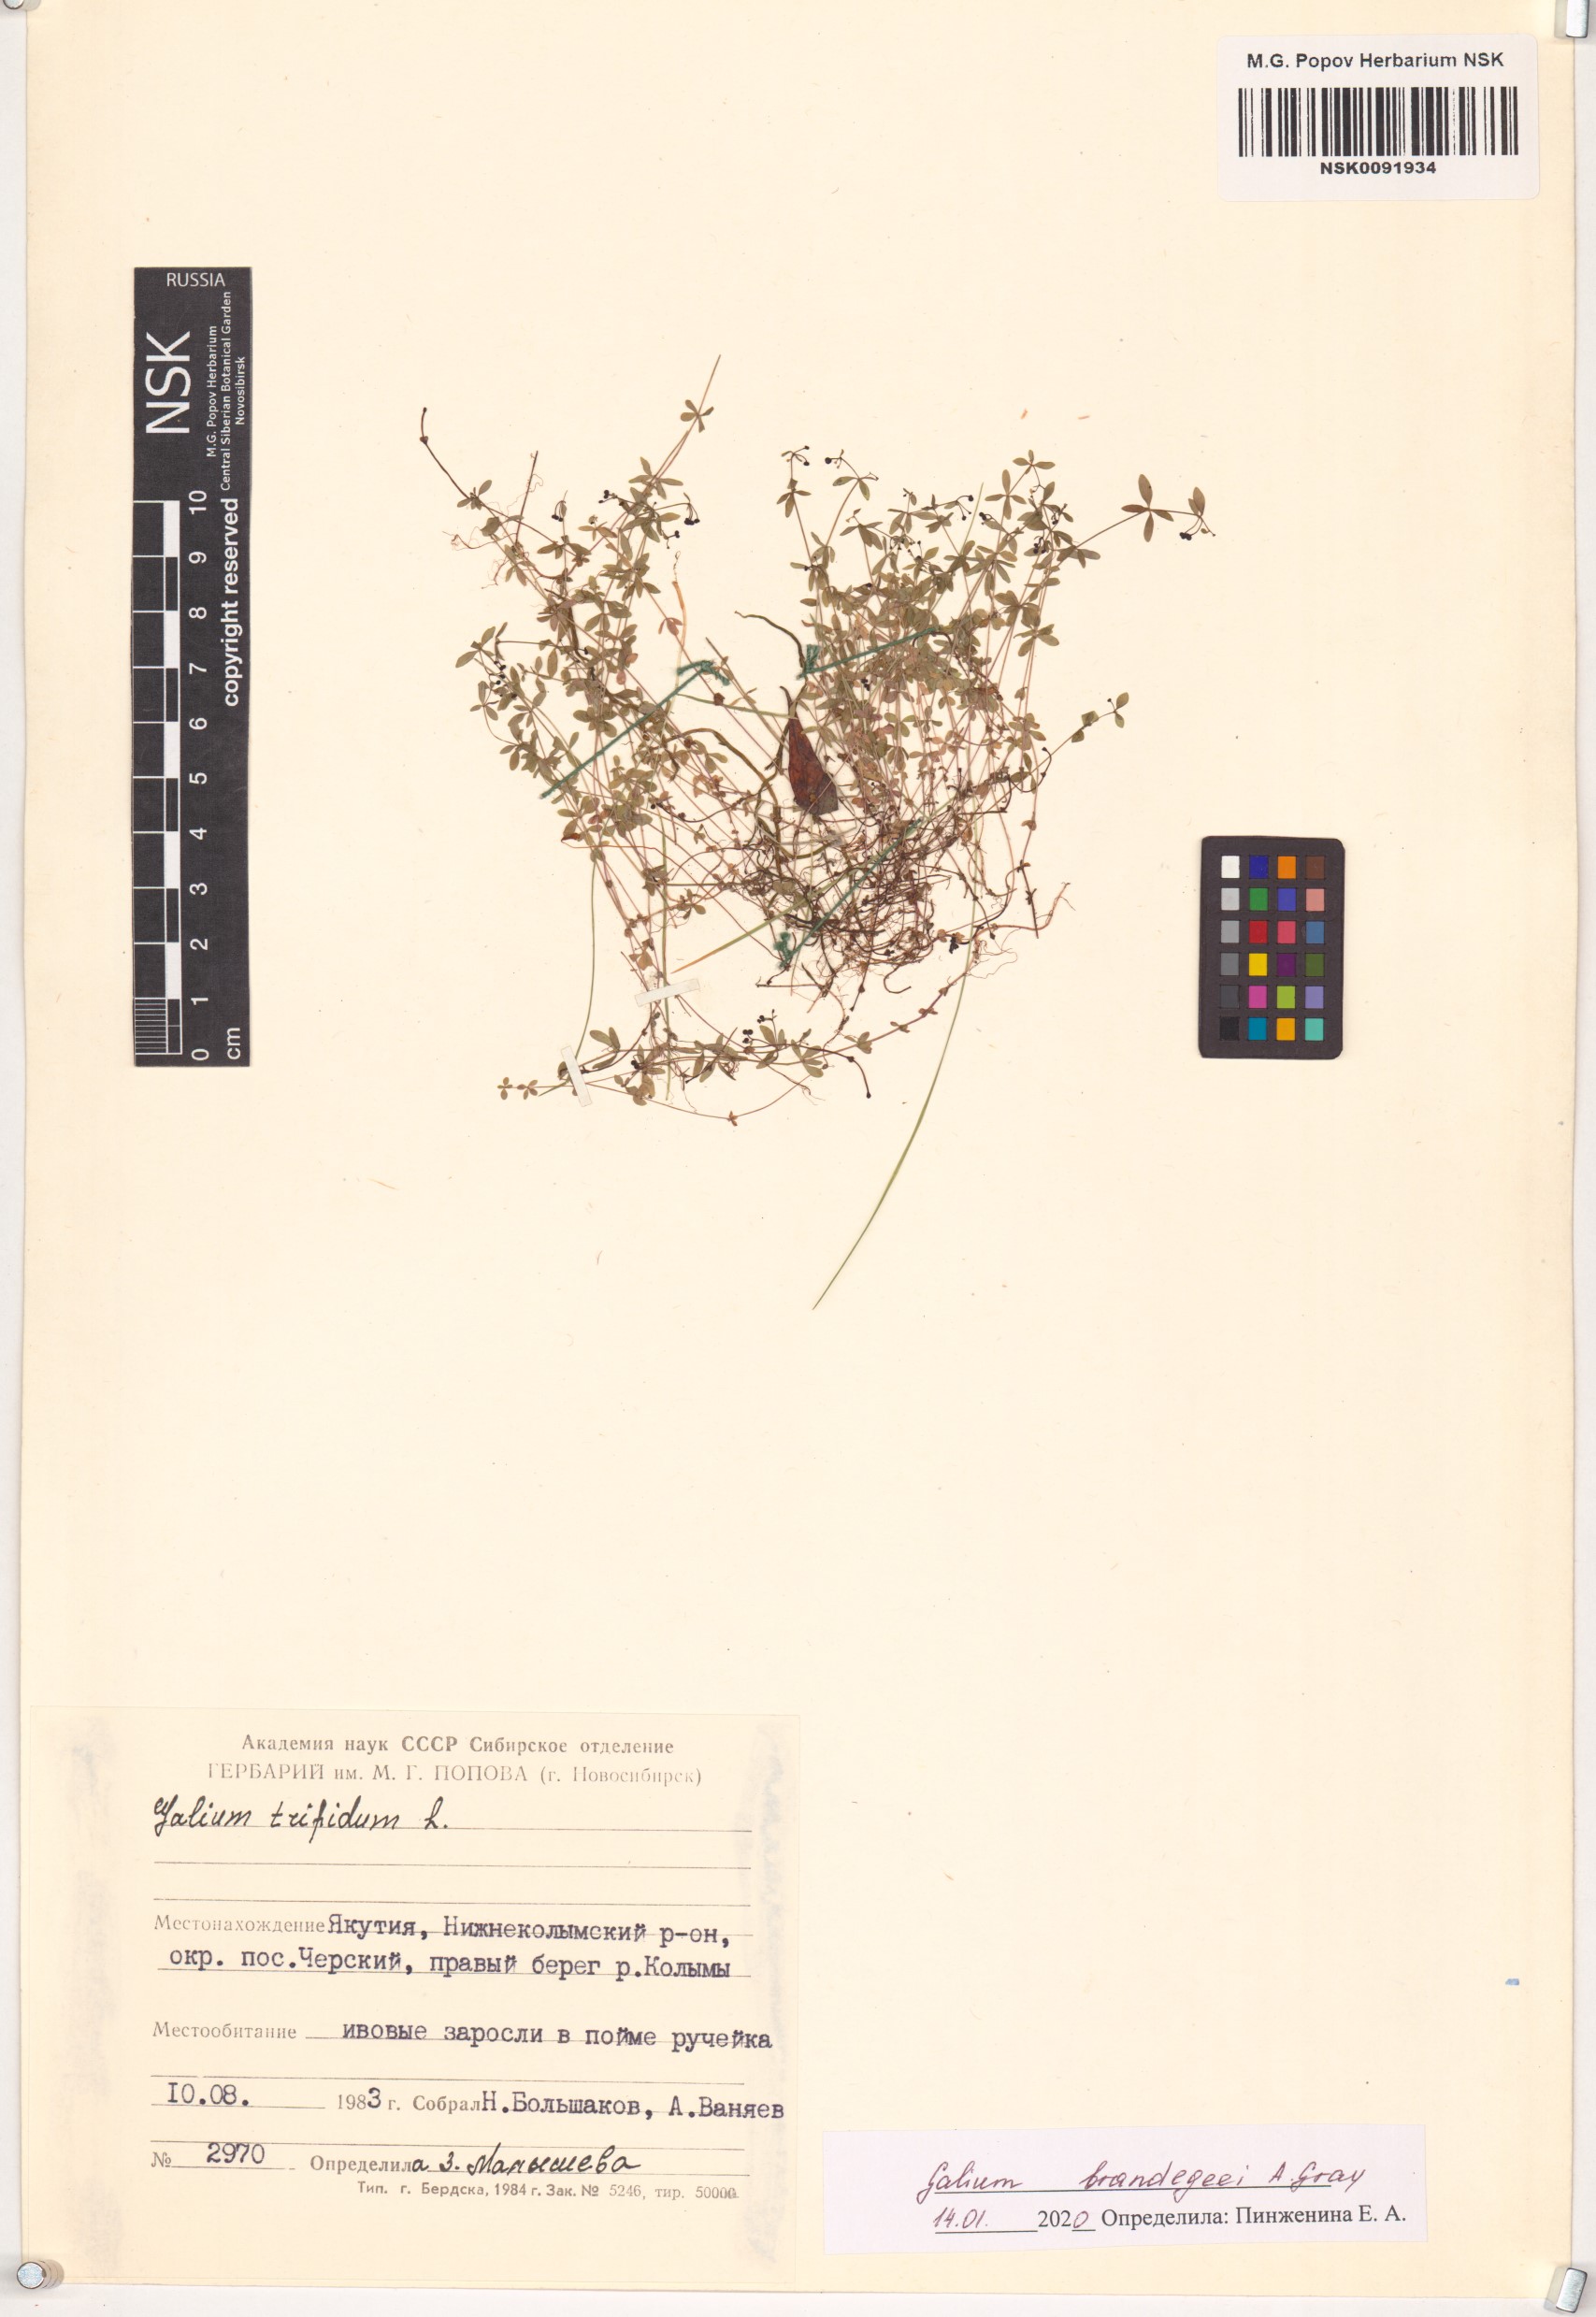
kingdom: Plantae
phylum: Tracheophyta
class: Magnoliopsida
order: Gentianales
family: Rubiaceae
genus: Galium
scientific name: Galium trifidum
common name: Small bedstraw
